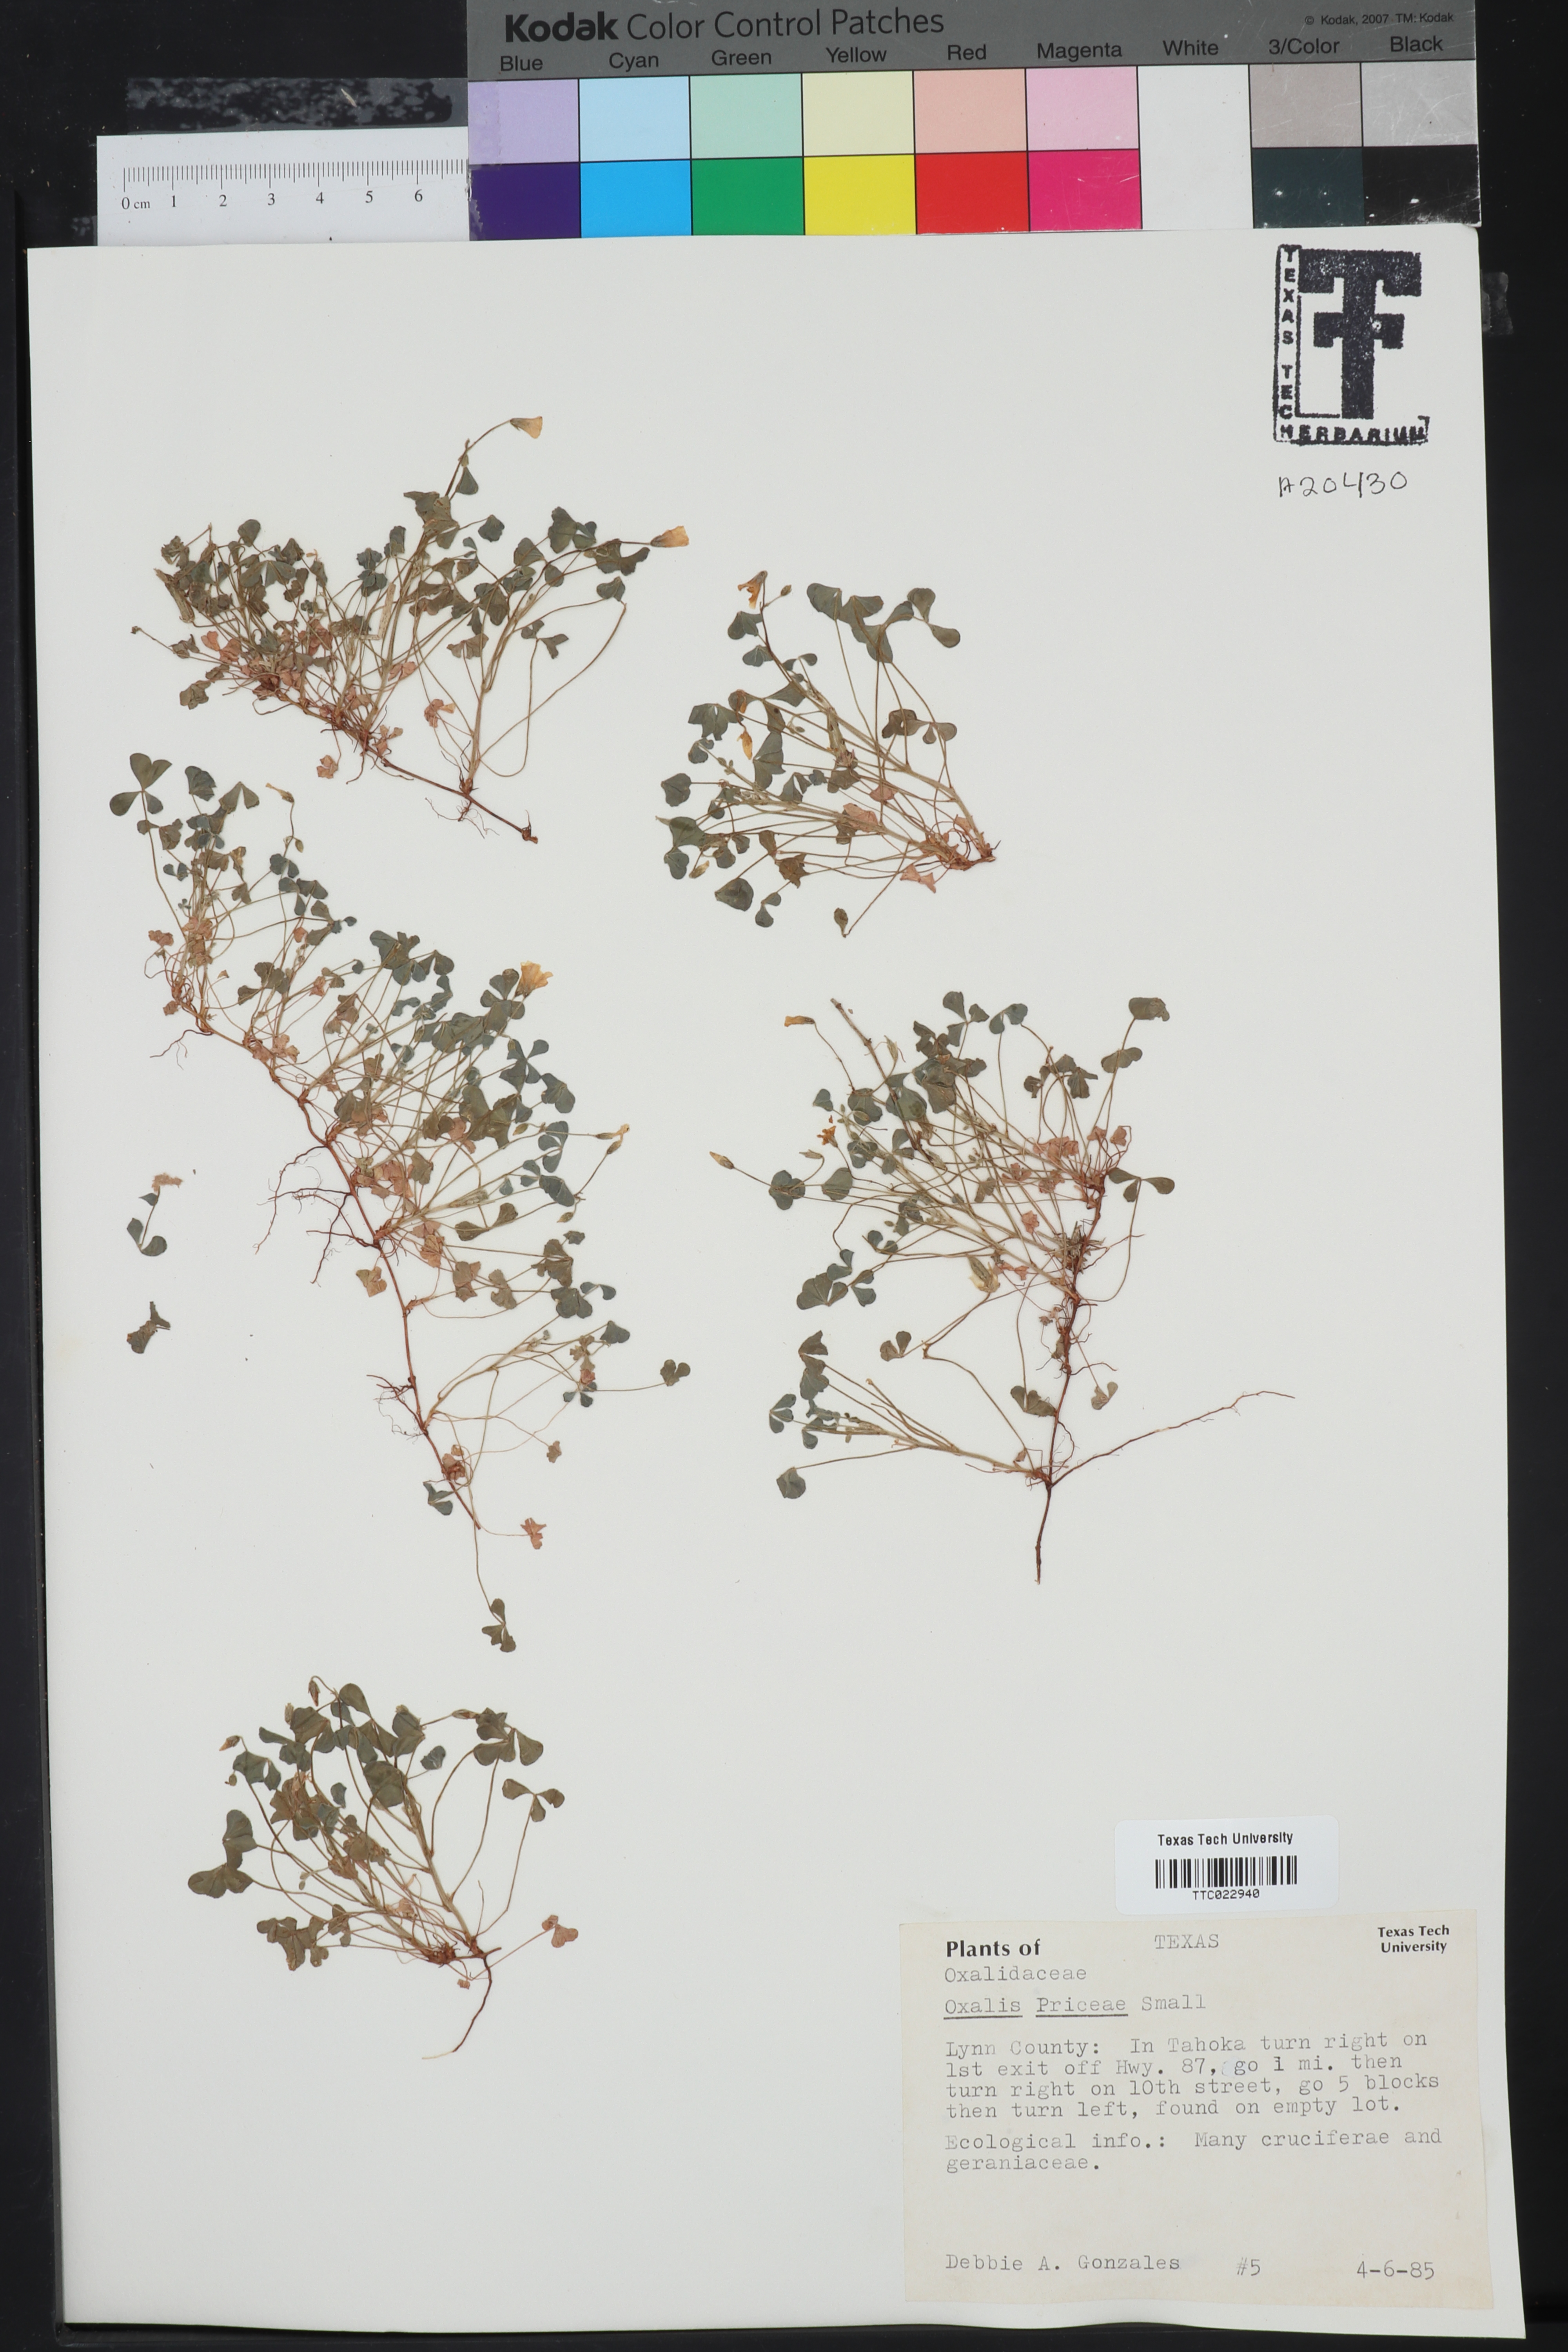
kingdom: Plantae
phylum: Tracheophyta
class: Magnoliopsida
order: Oxalidales
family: Oxalidaceae
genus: Oxalis
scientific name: Oxalis macrantha
